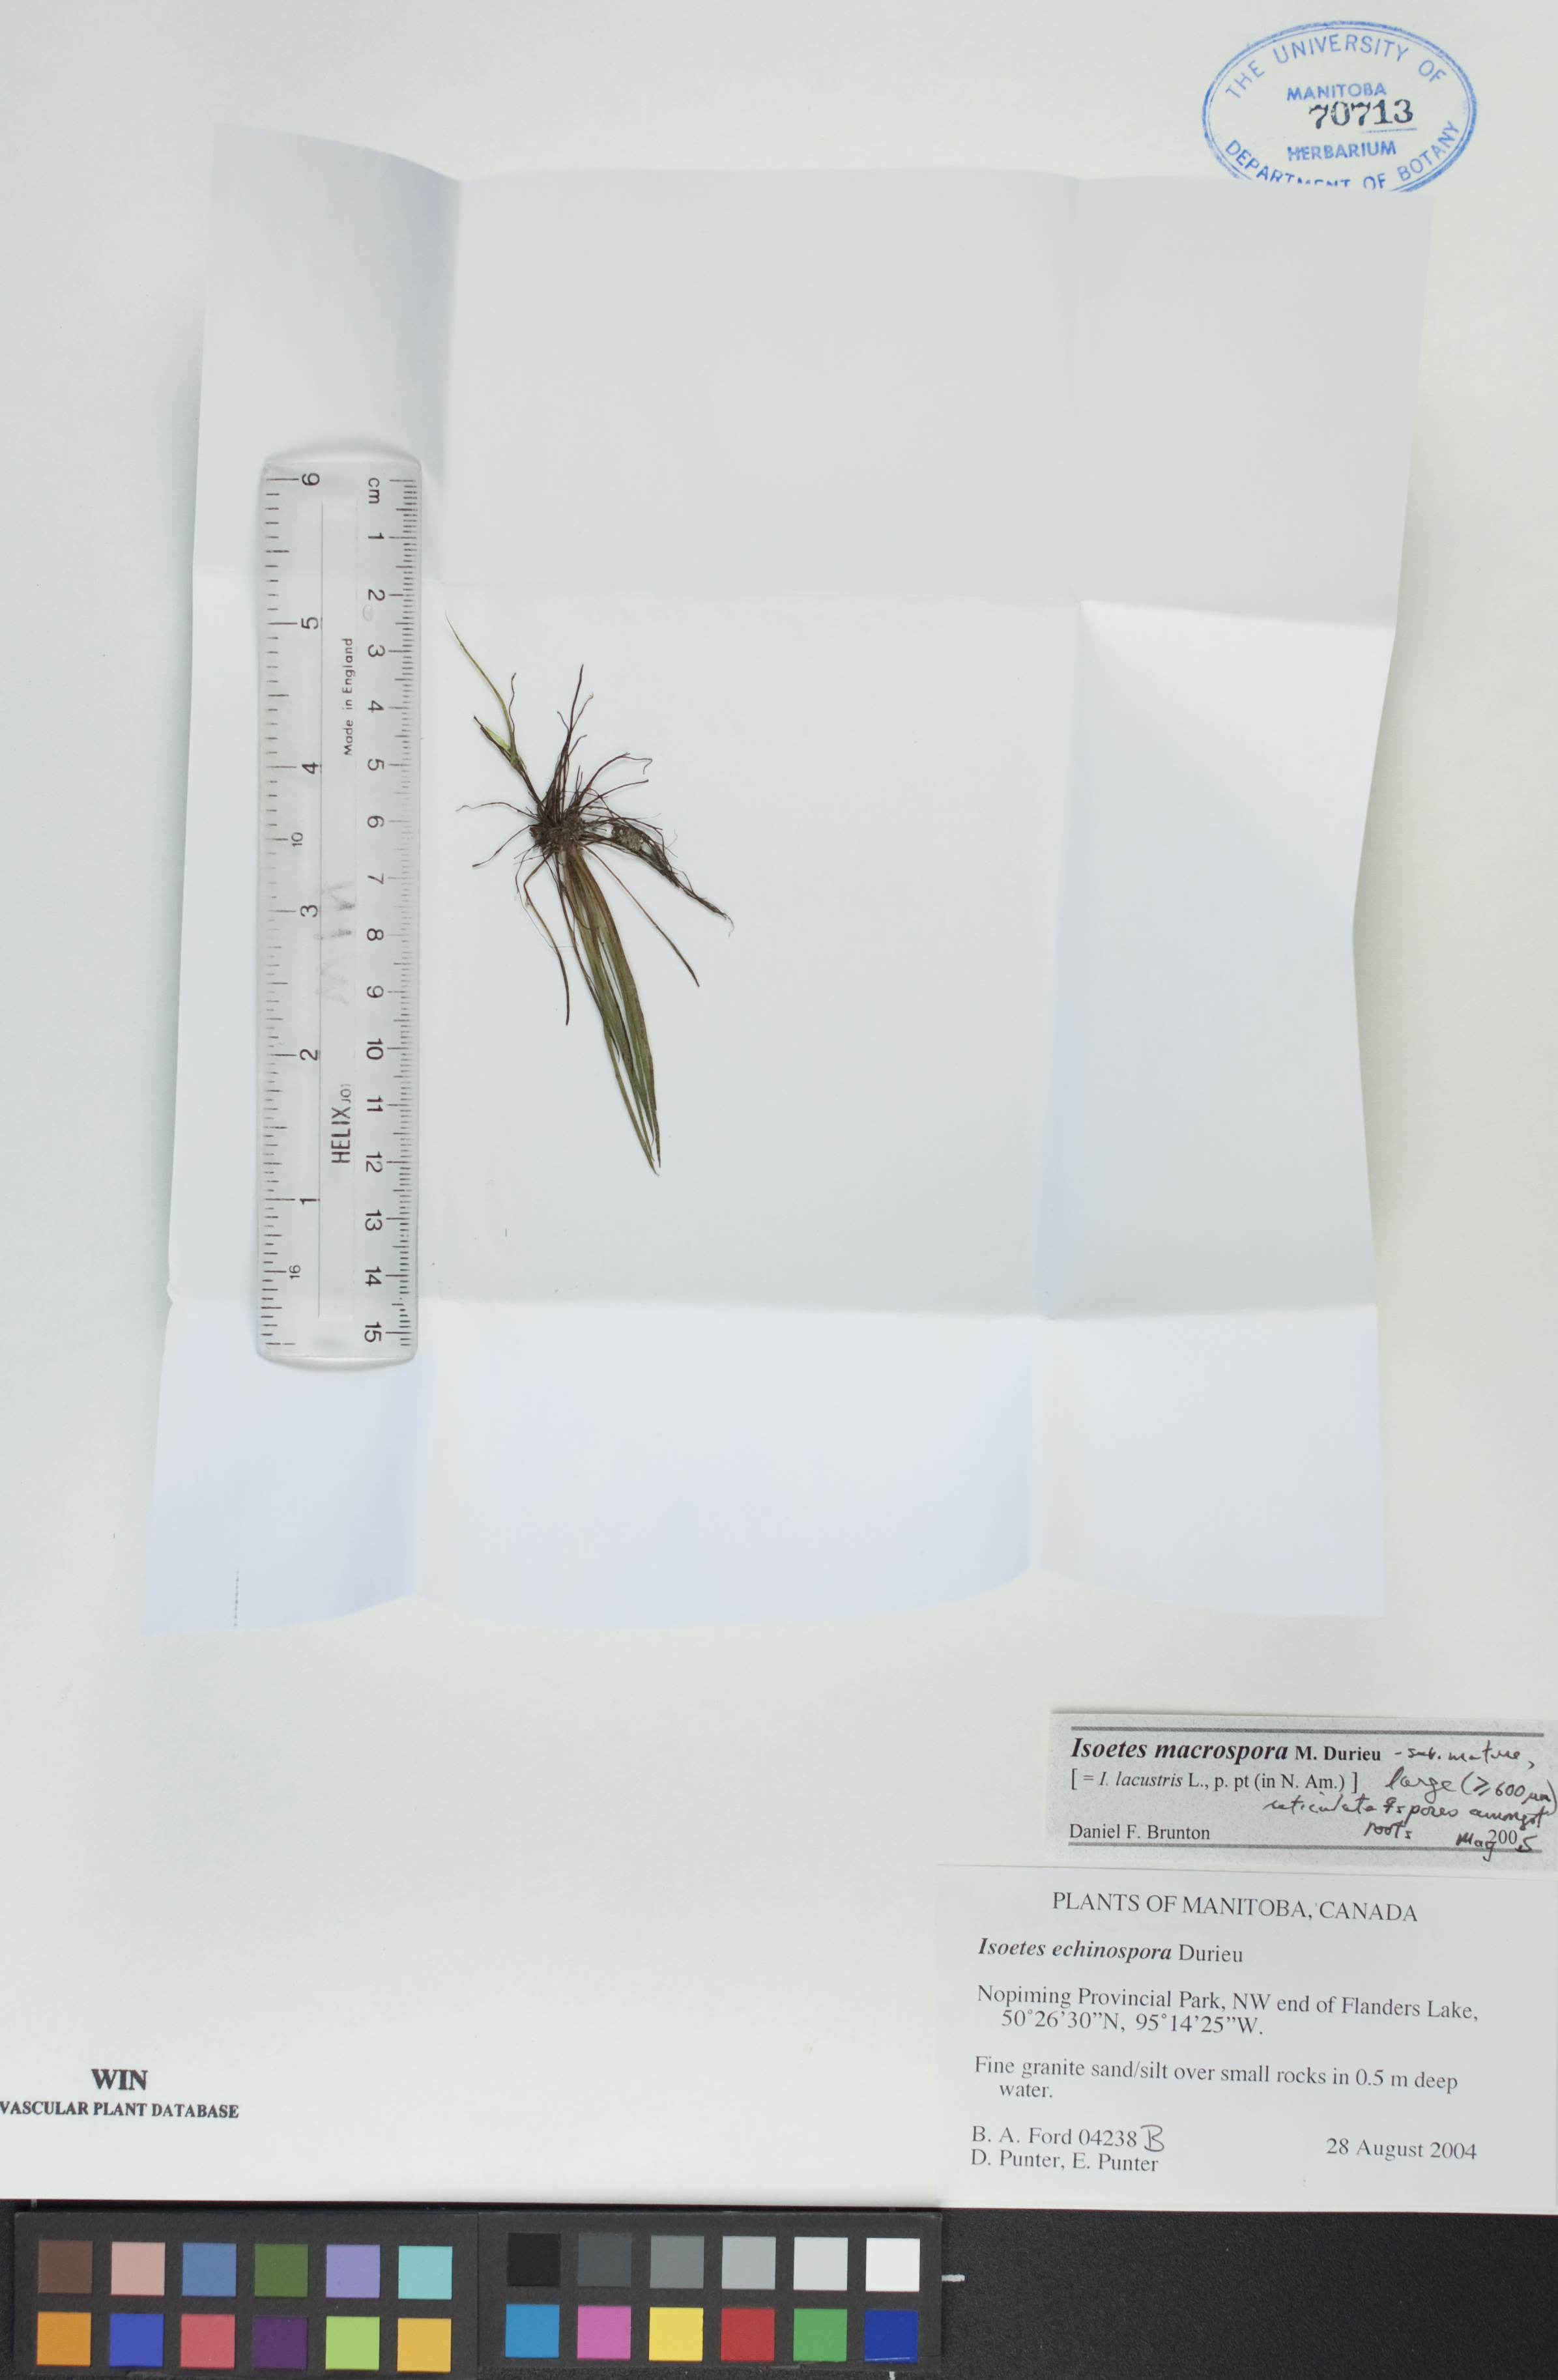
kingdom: Plantae
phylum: Tracheophyta
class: Lycopodiopsida
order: Isoetales
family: Isoetaceae
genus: Isoetes
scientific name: Isoetes lacustris
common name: Common quillwort
